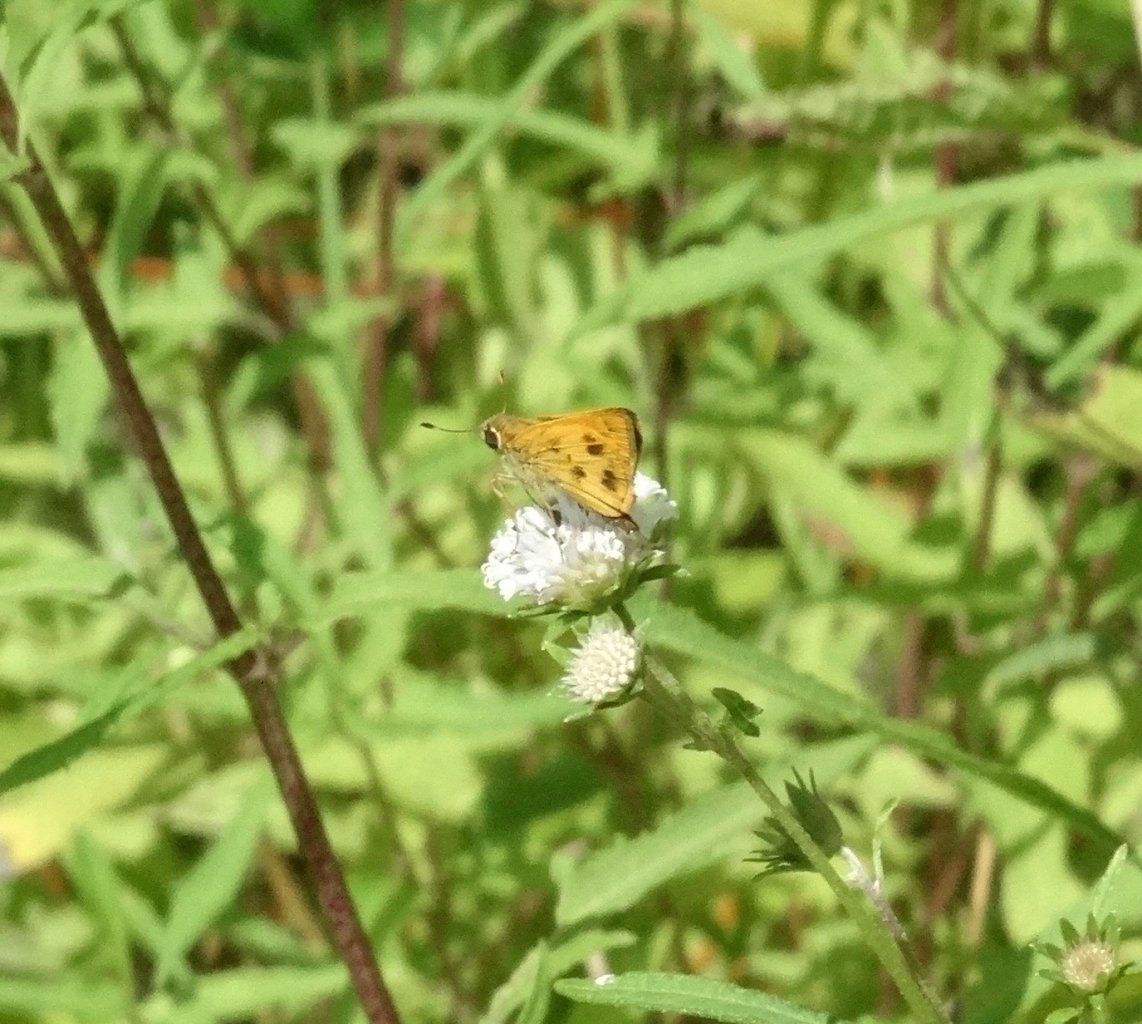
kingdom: Animalia
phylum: Arthropoda
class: Insecta
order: Lepidoptera
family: Hesperiidae
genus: Polites
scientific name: Polites vibex
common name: Whirlabout
